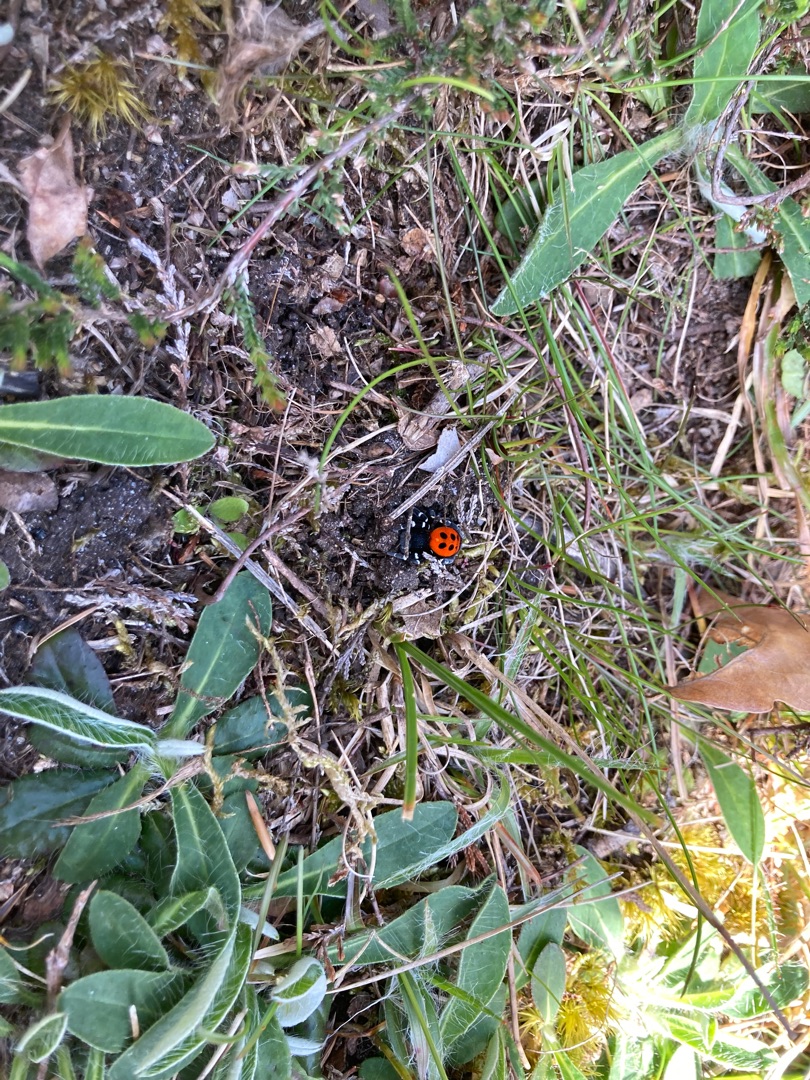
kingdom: Animalia
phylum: Arthropoda
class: Arachnida
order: Araneae
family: Eresidae
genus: Eresus
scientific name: Eresus sandaliatus
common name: Mariehøneedderkop
